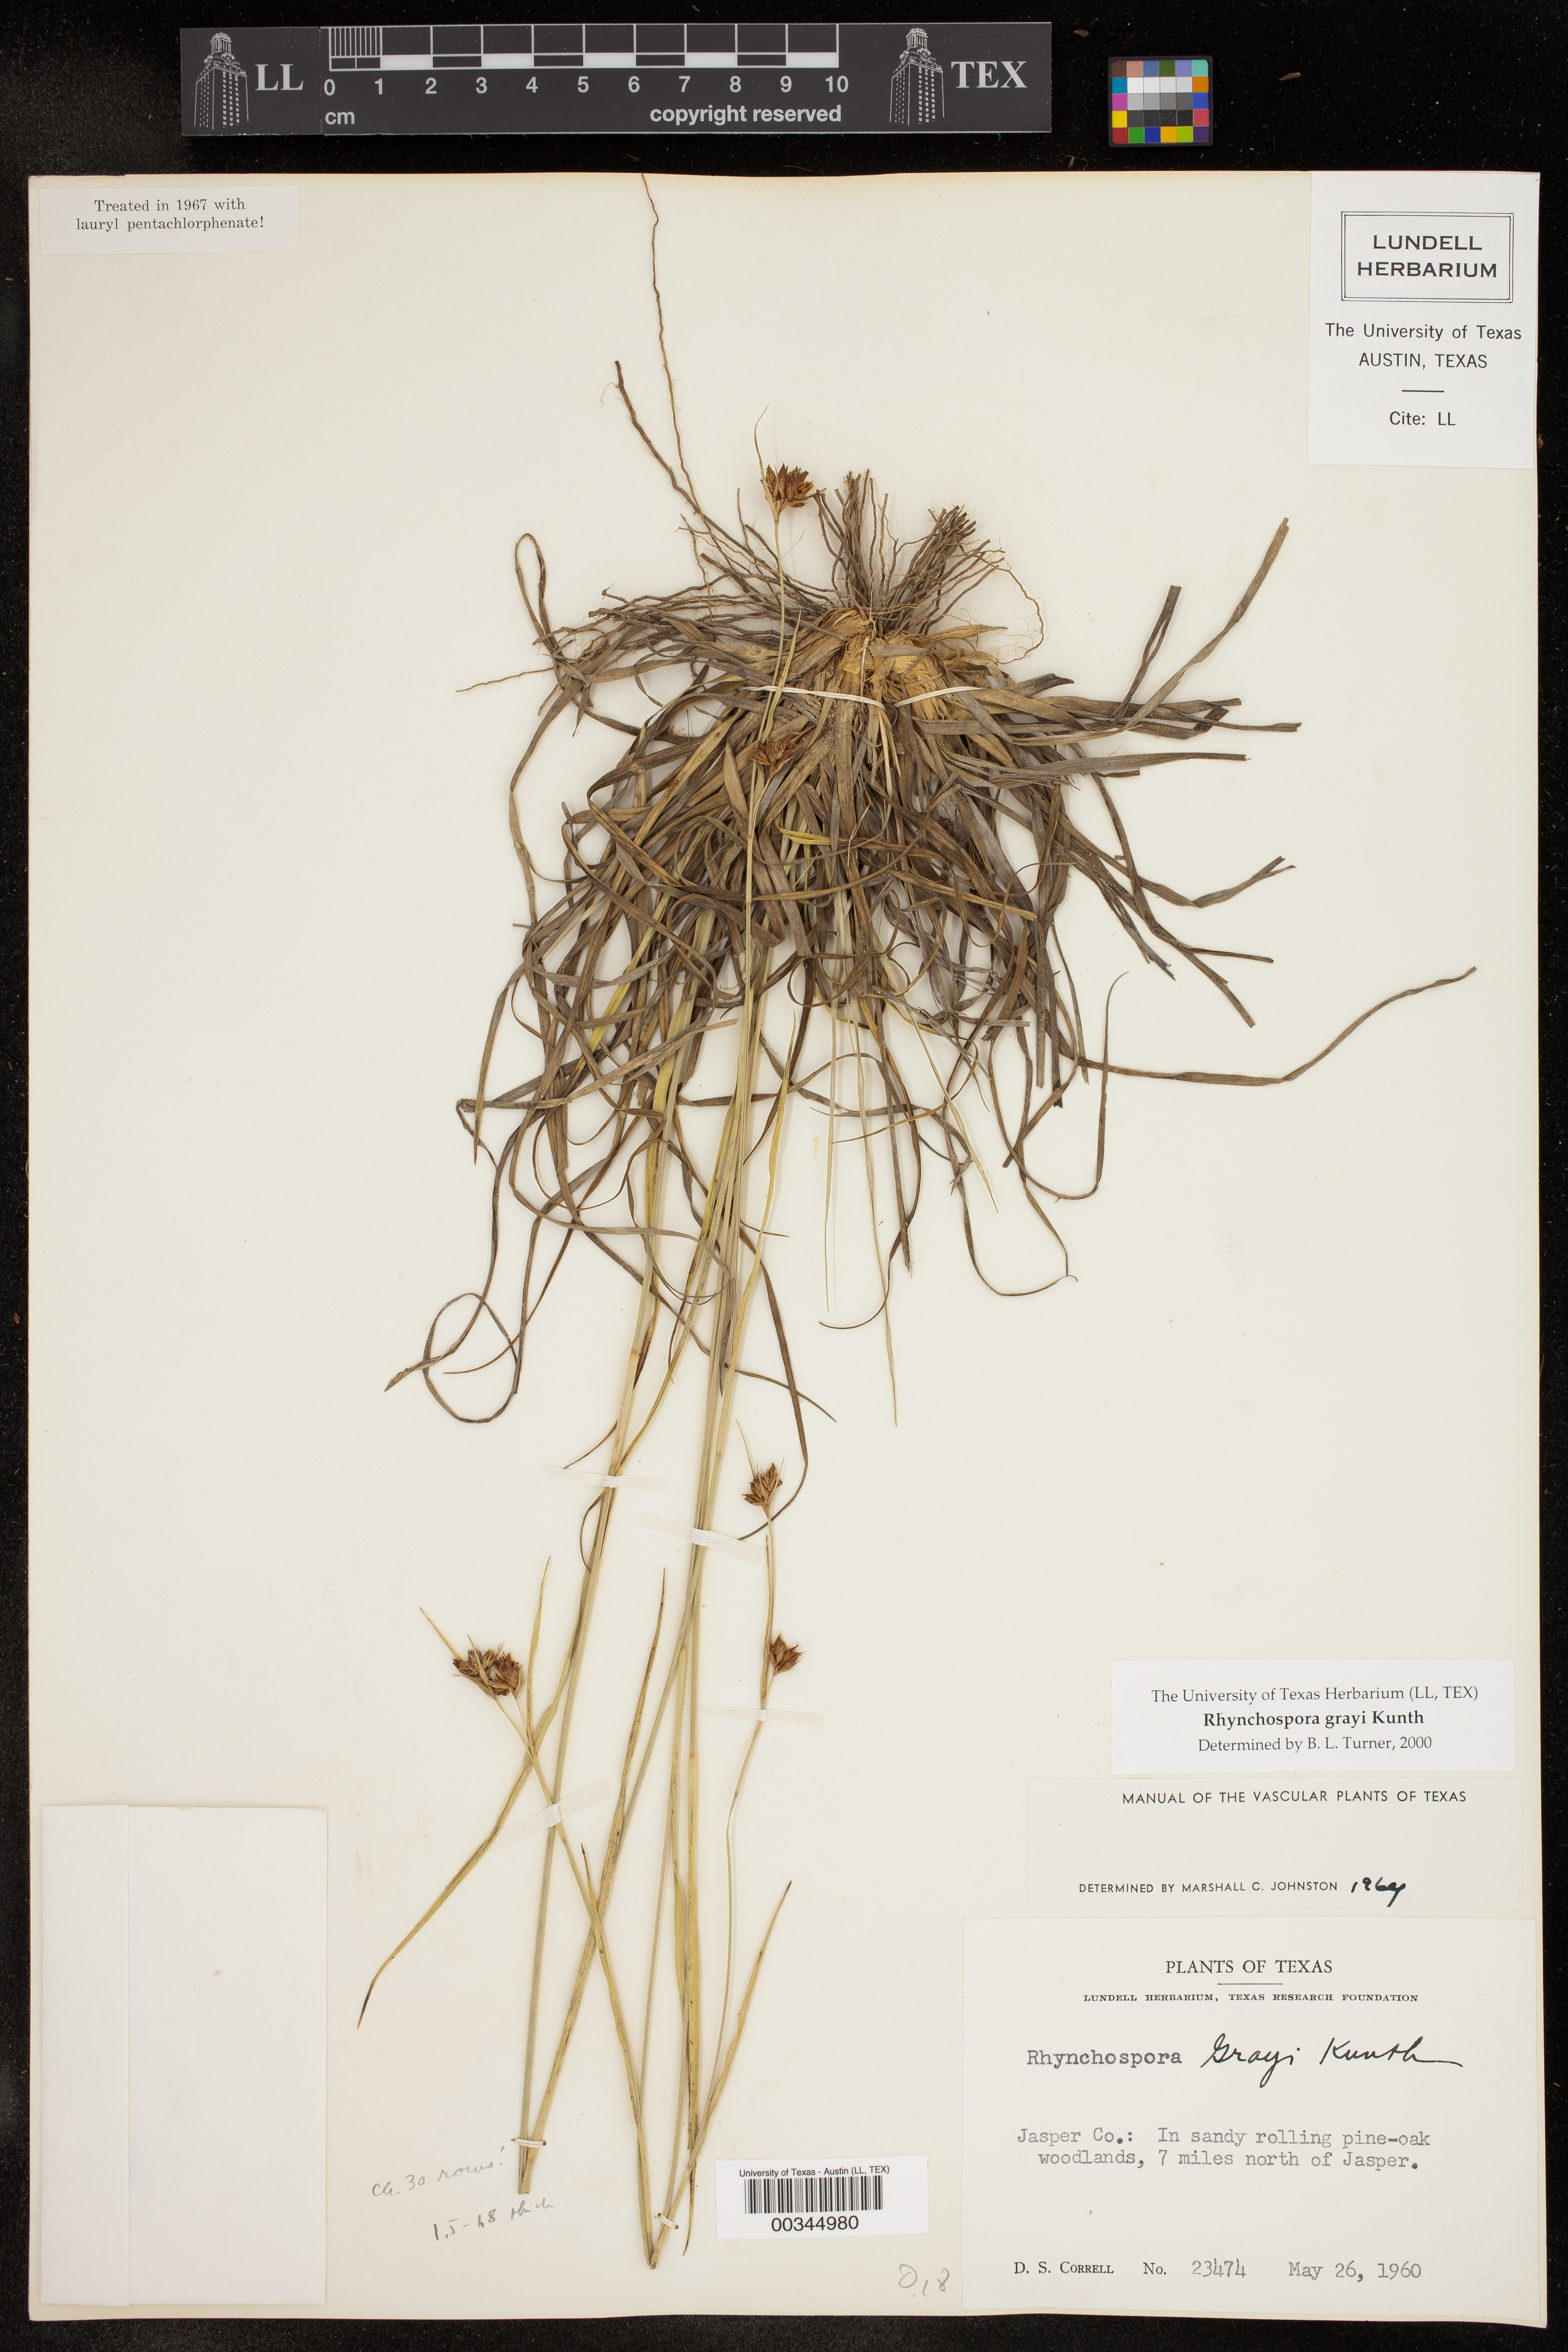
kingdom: Plantae
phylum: Tracheophyta
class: Liliopsida
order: Poales
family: Cyperaceae
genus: Rhynchospora
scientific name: Rhynchospora grayi
